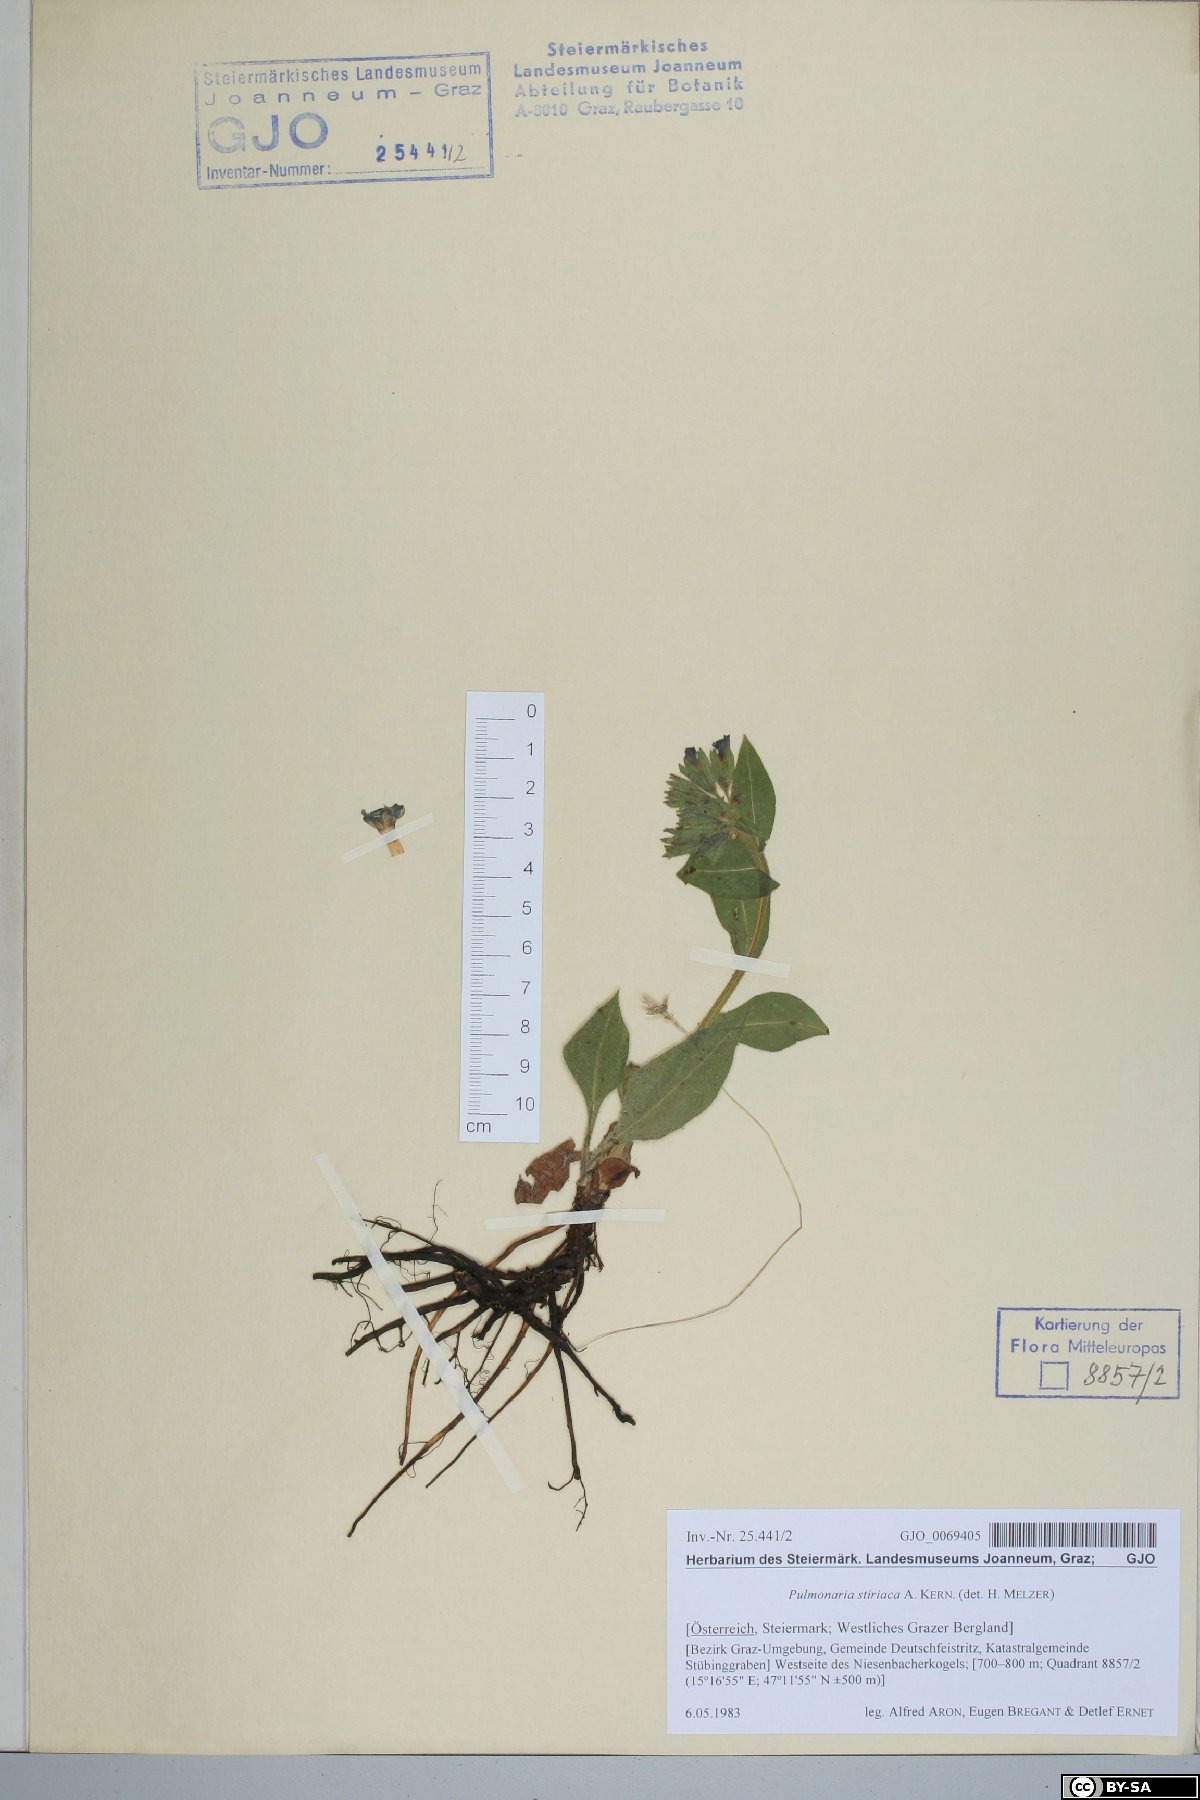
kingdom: Plantae
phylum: Tracheophyta
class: Magnoliopsida
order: Boraginales
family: Boraginaceae
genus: Pulmonaria
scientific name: Pulmonaria stiriaca
